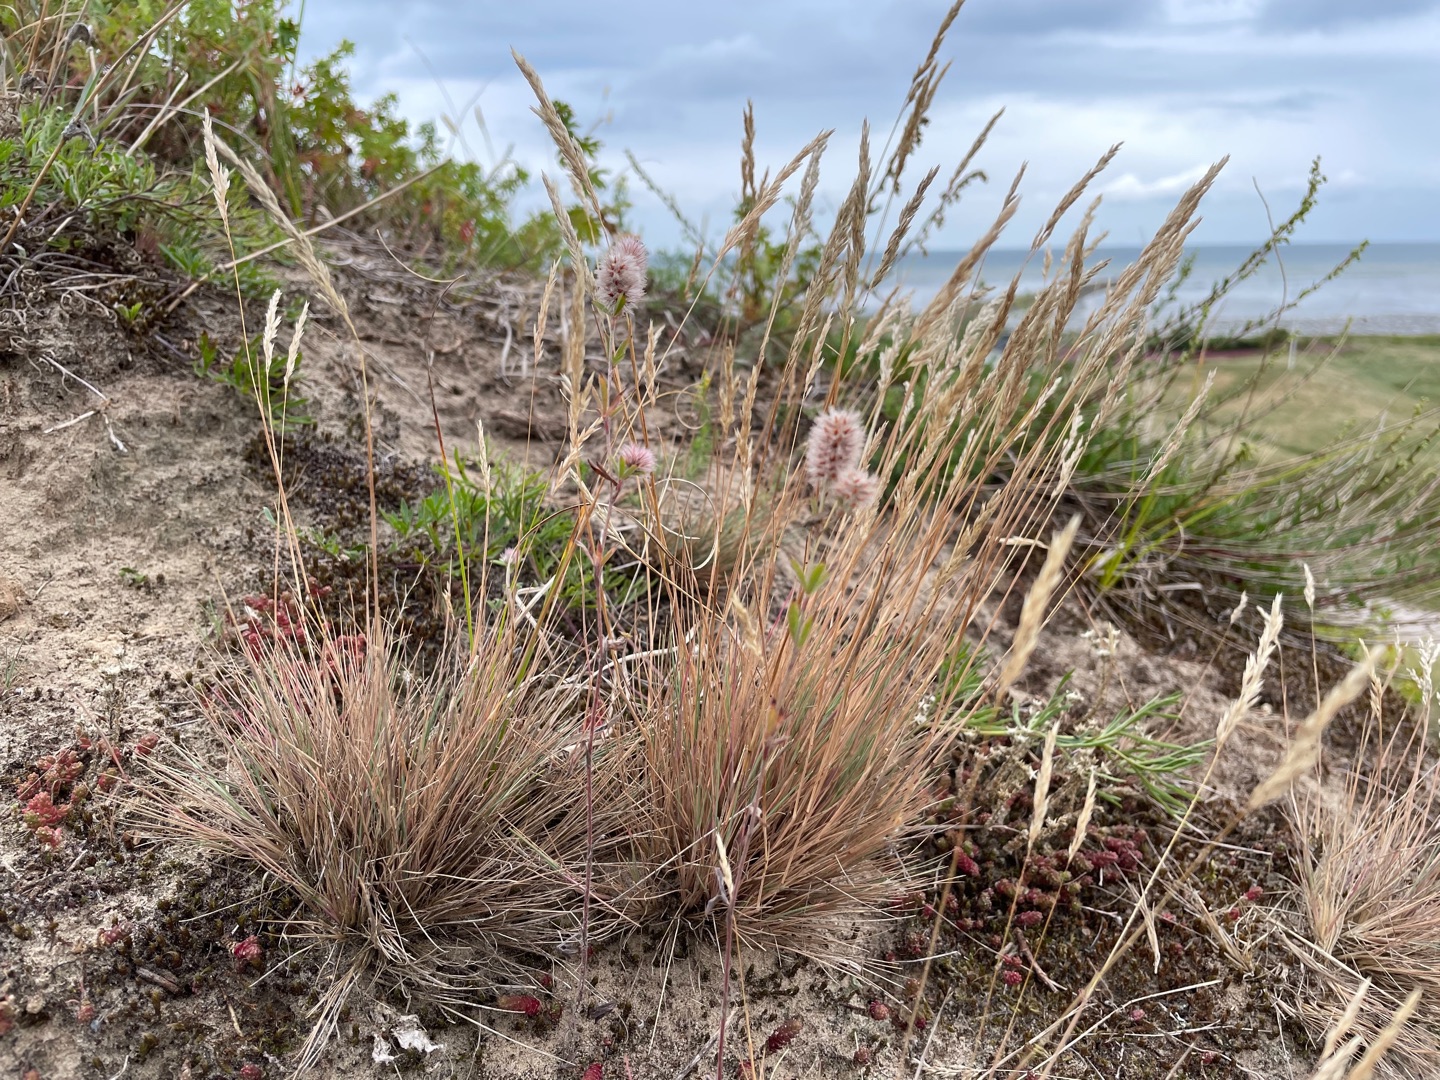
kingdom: Plantae
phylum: Tracheophyta
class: Liliopsida
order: Poales
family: Poaceae
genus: Corynephorus
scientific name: Corynephorus canescens
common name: Sandskæg
